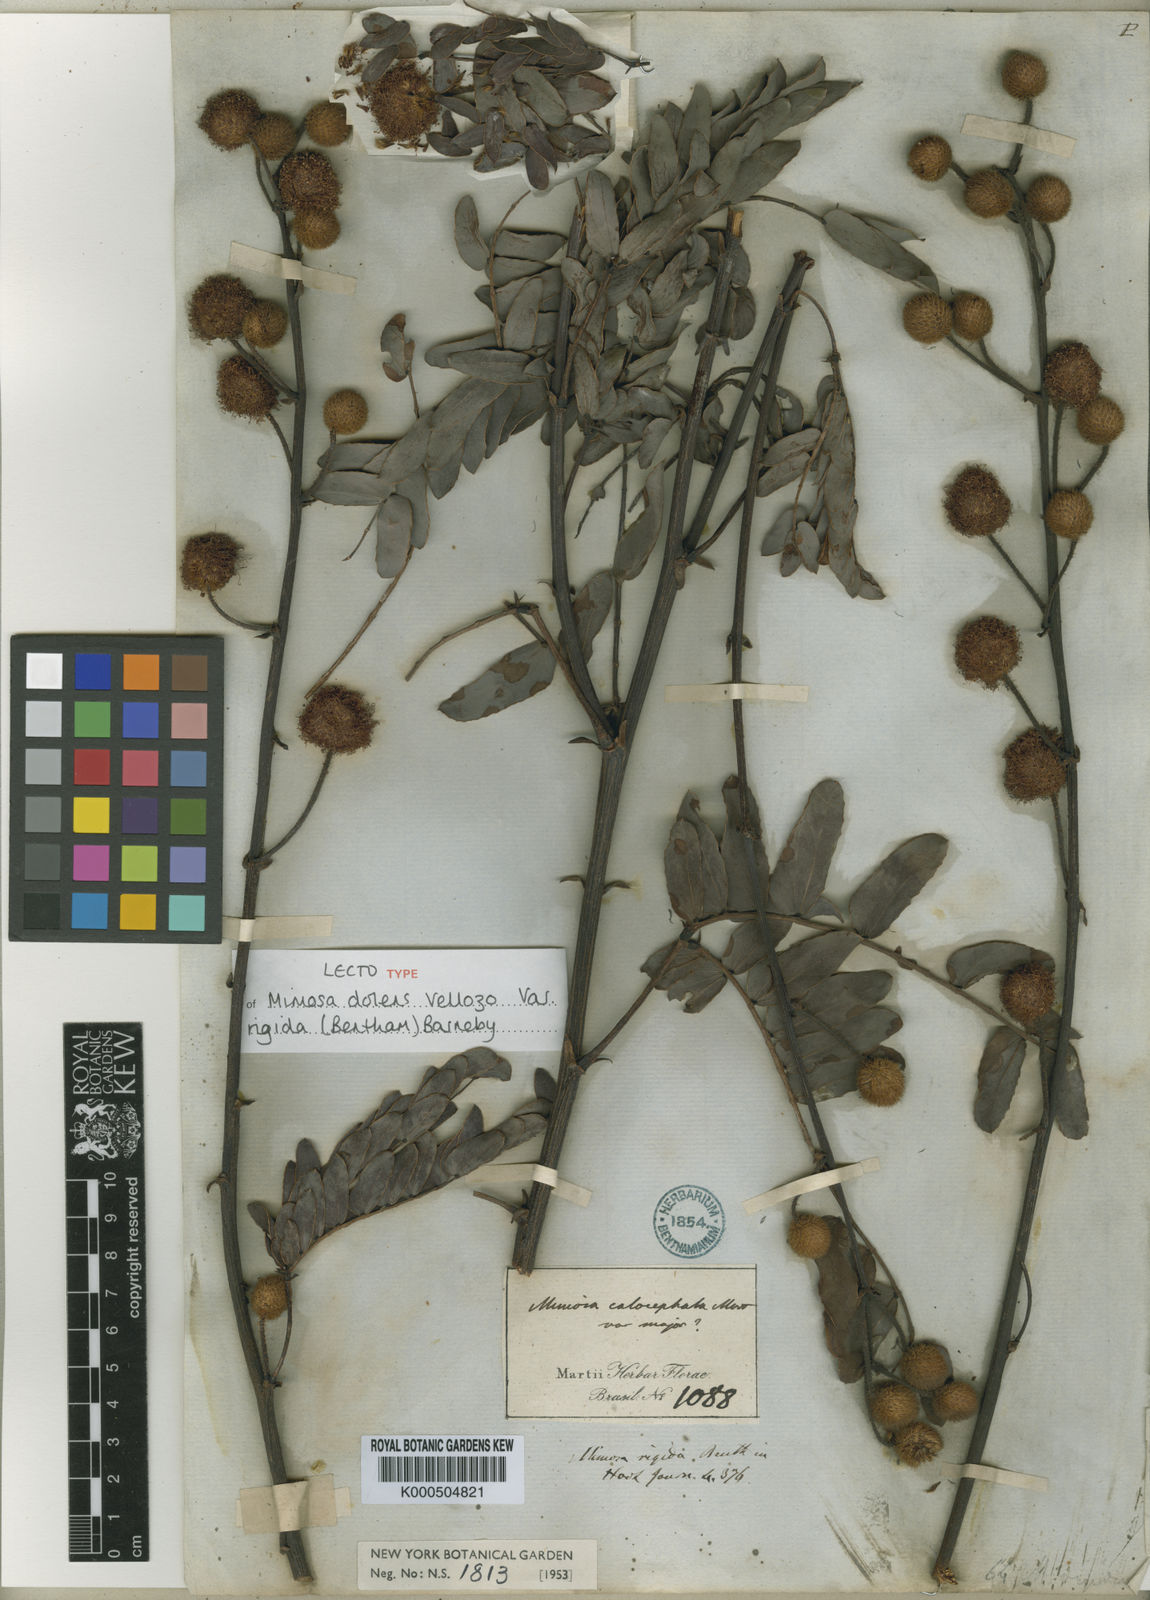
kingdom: Plantae
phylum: Tracheophyta
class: Magnoliopsida
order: Fabales
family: Fabaceae
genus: Mimosa
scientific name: Mimosa dolens
